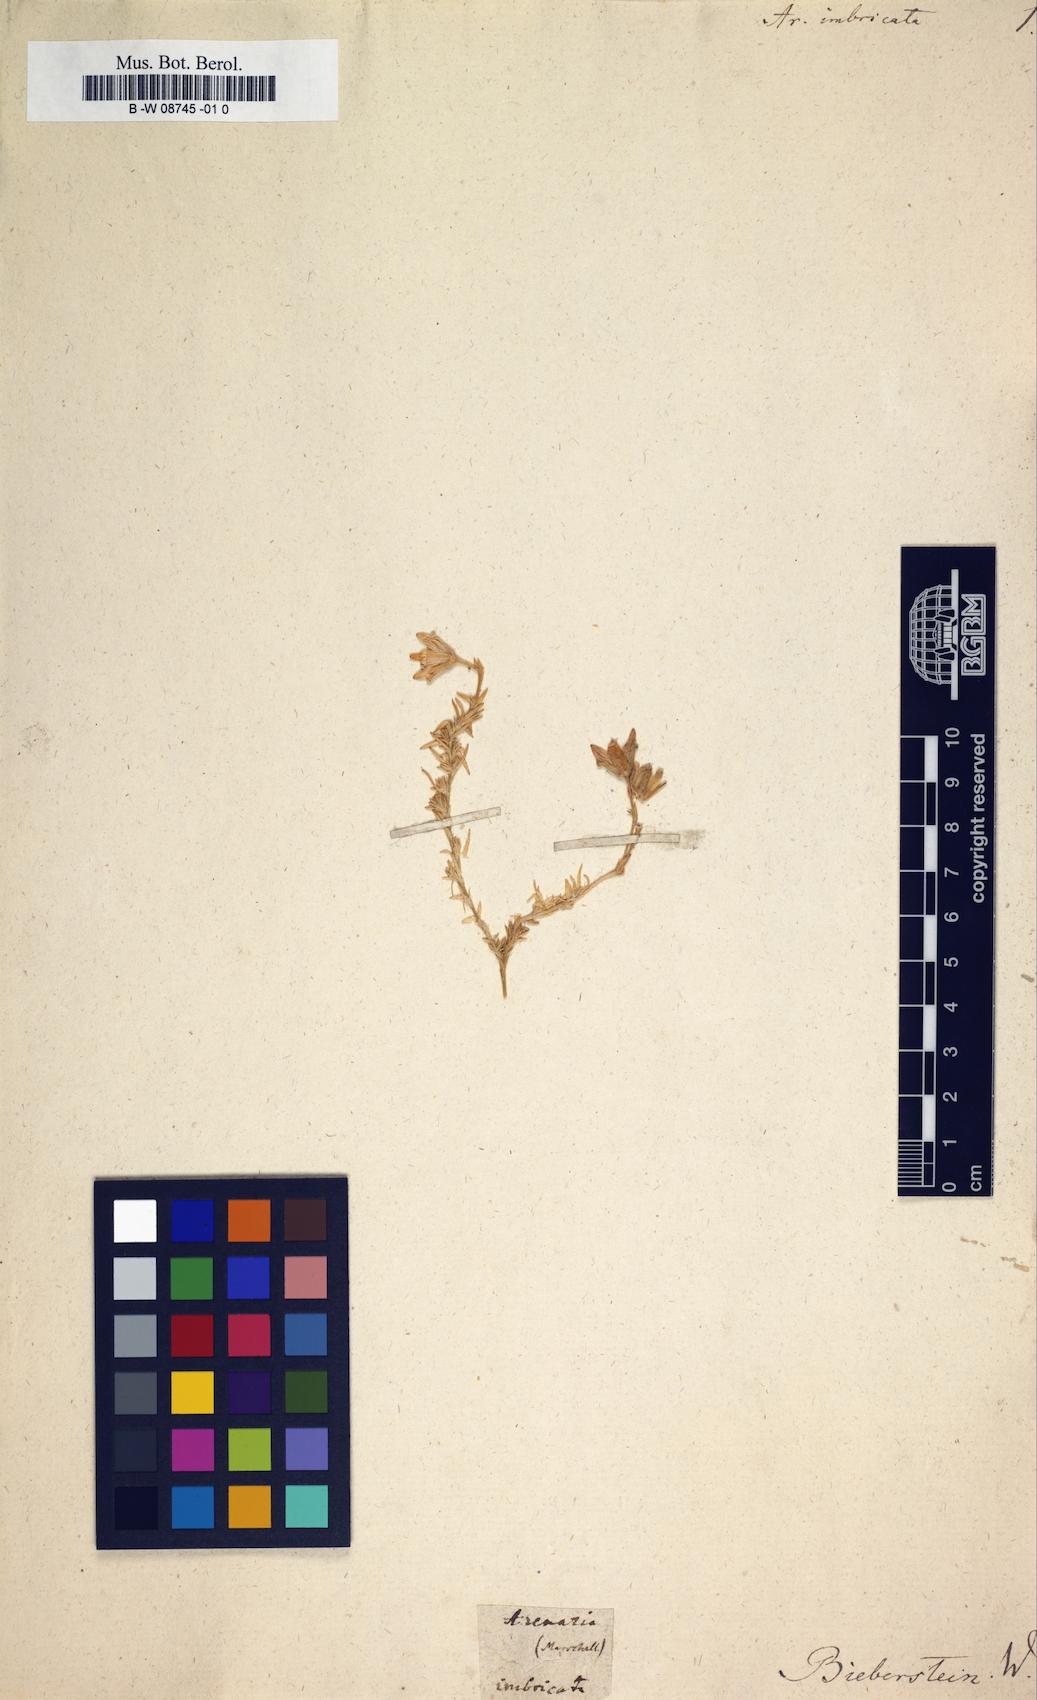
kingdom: Plantae
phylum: Tracheophyta
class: Magnoliopsida
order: Caryophyllales
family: Caryophyllaceae
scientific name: Caryophyllaceae
